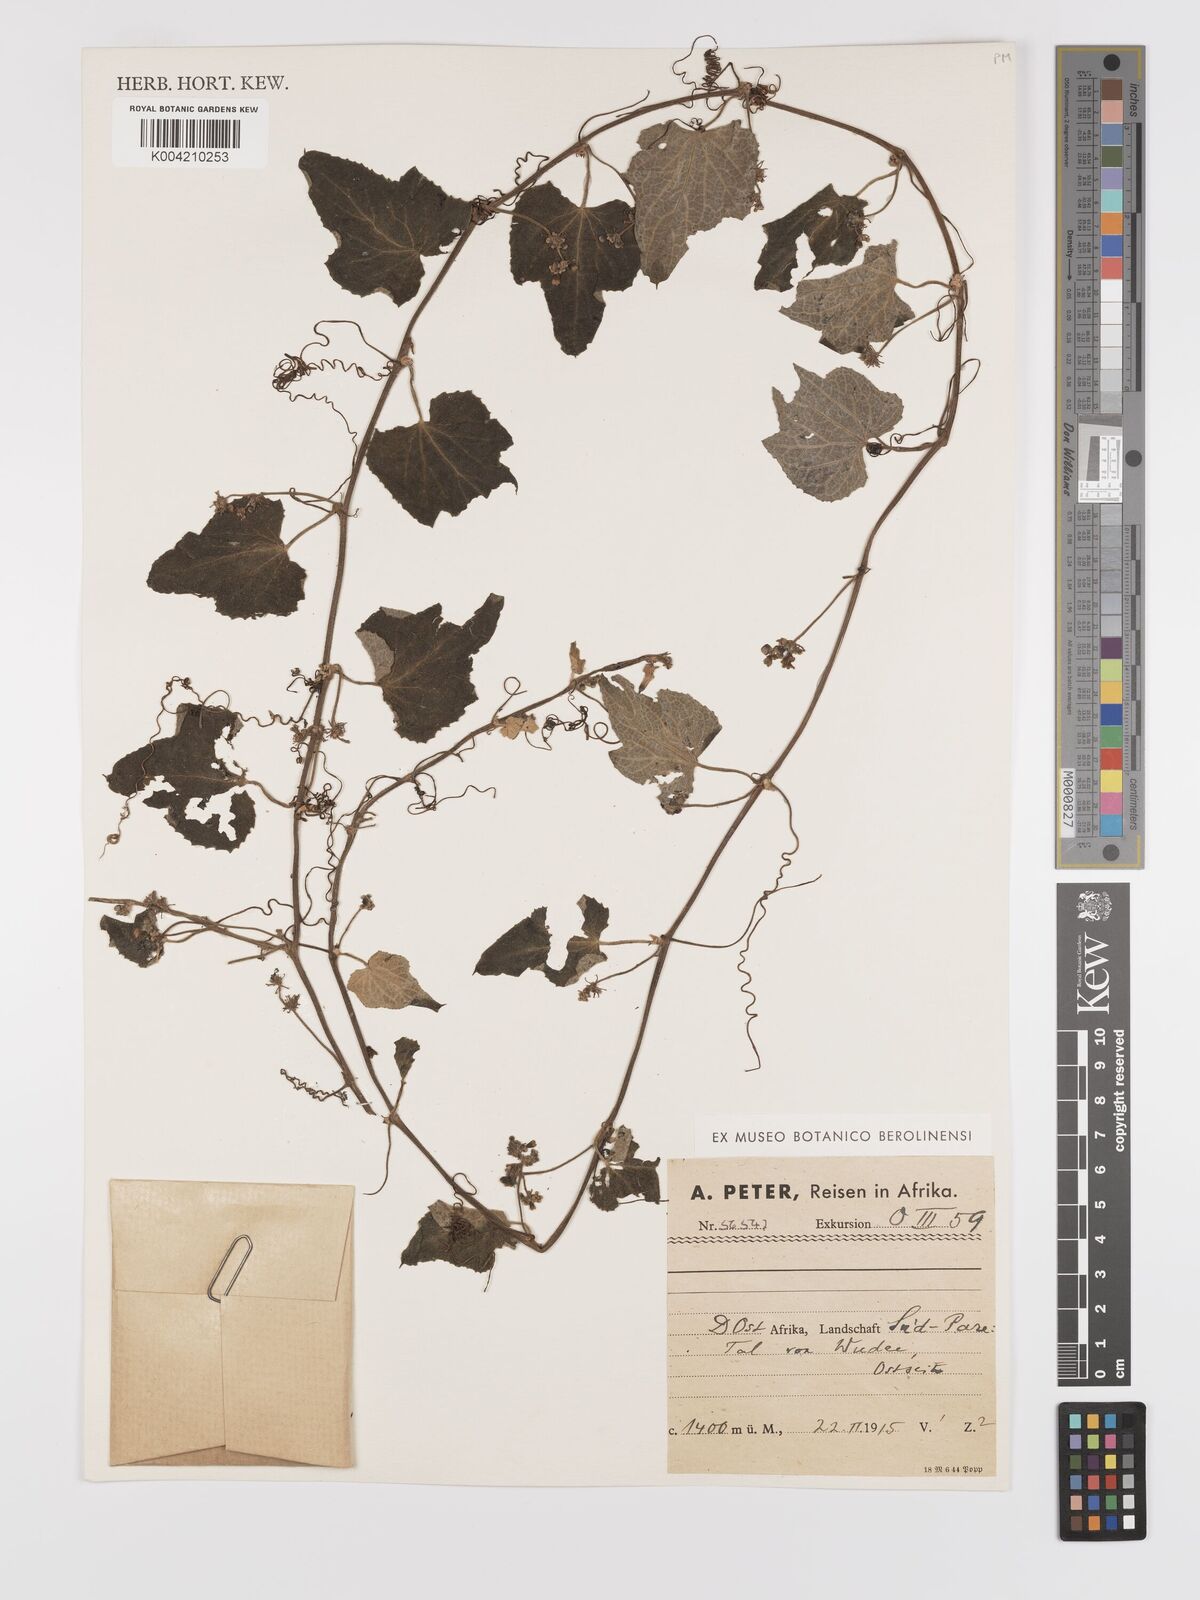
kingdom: Plantae
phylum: Tracheophyta
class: Magnoliopsida
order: Cucurbitales
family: Cucurbitaceae
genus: Zehneria
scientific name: Zehneria scabra
